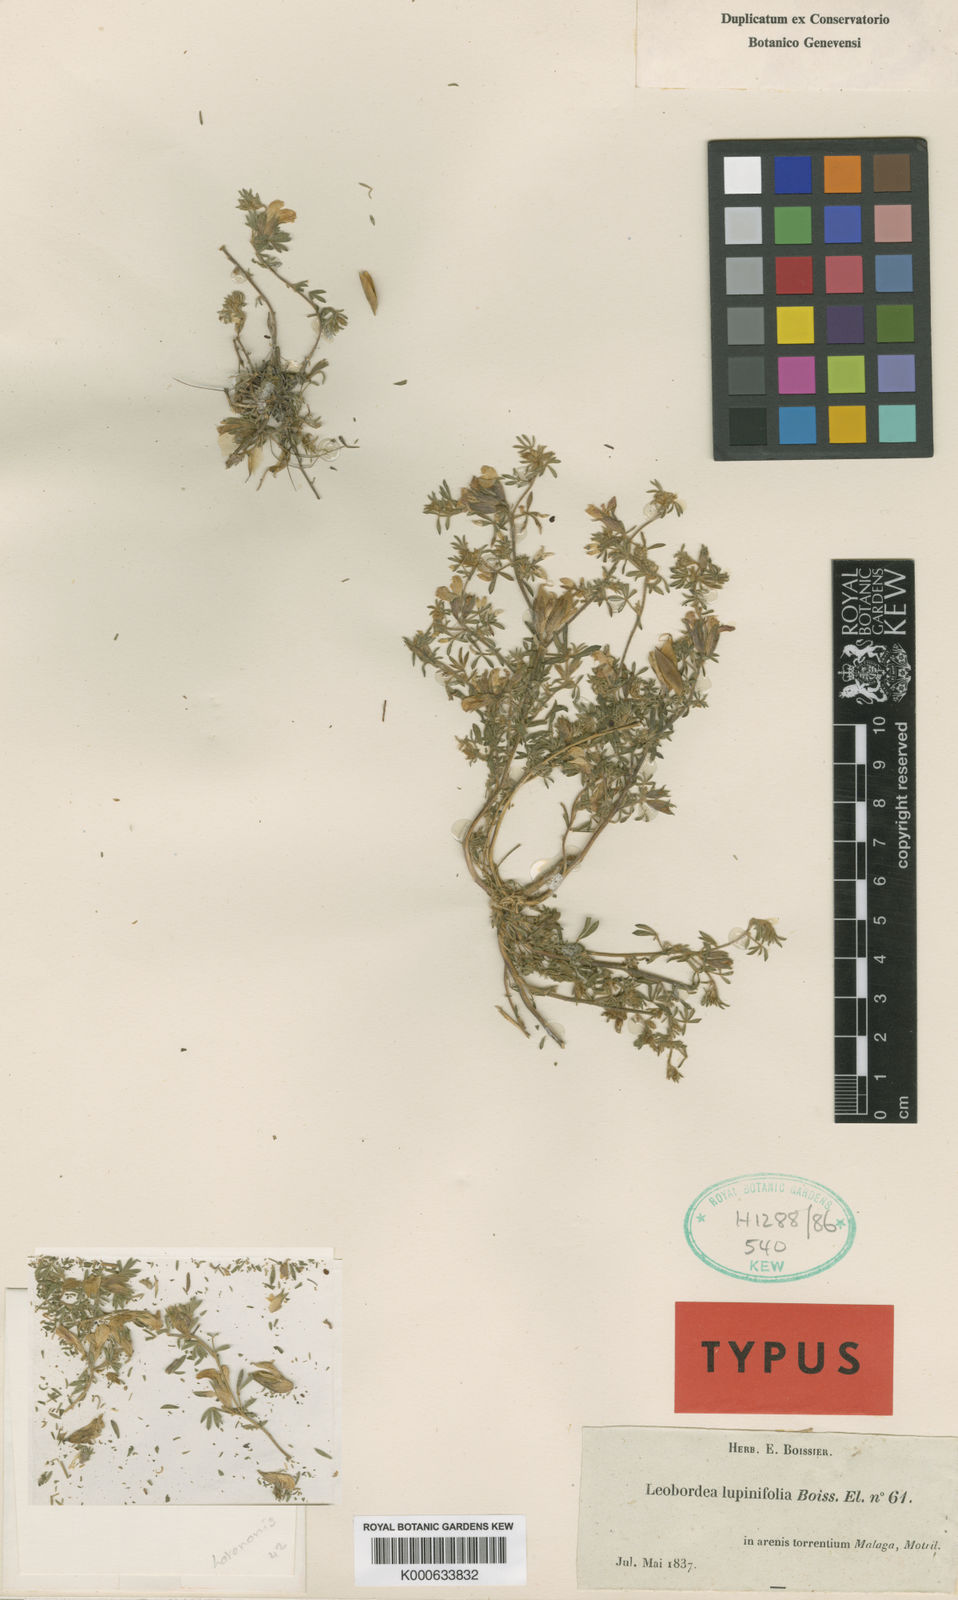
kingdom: Plantae
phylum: Tracheophyta
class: Magnoliopsida
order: Fabales
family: Fabaceae
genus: Leobordea
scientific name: Leobordea lupinifolia
